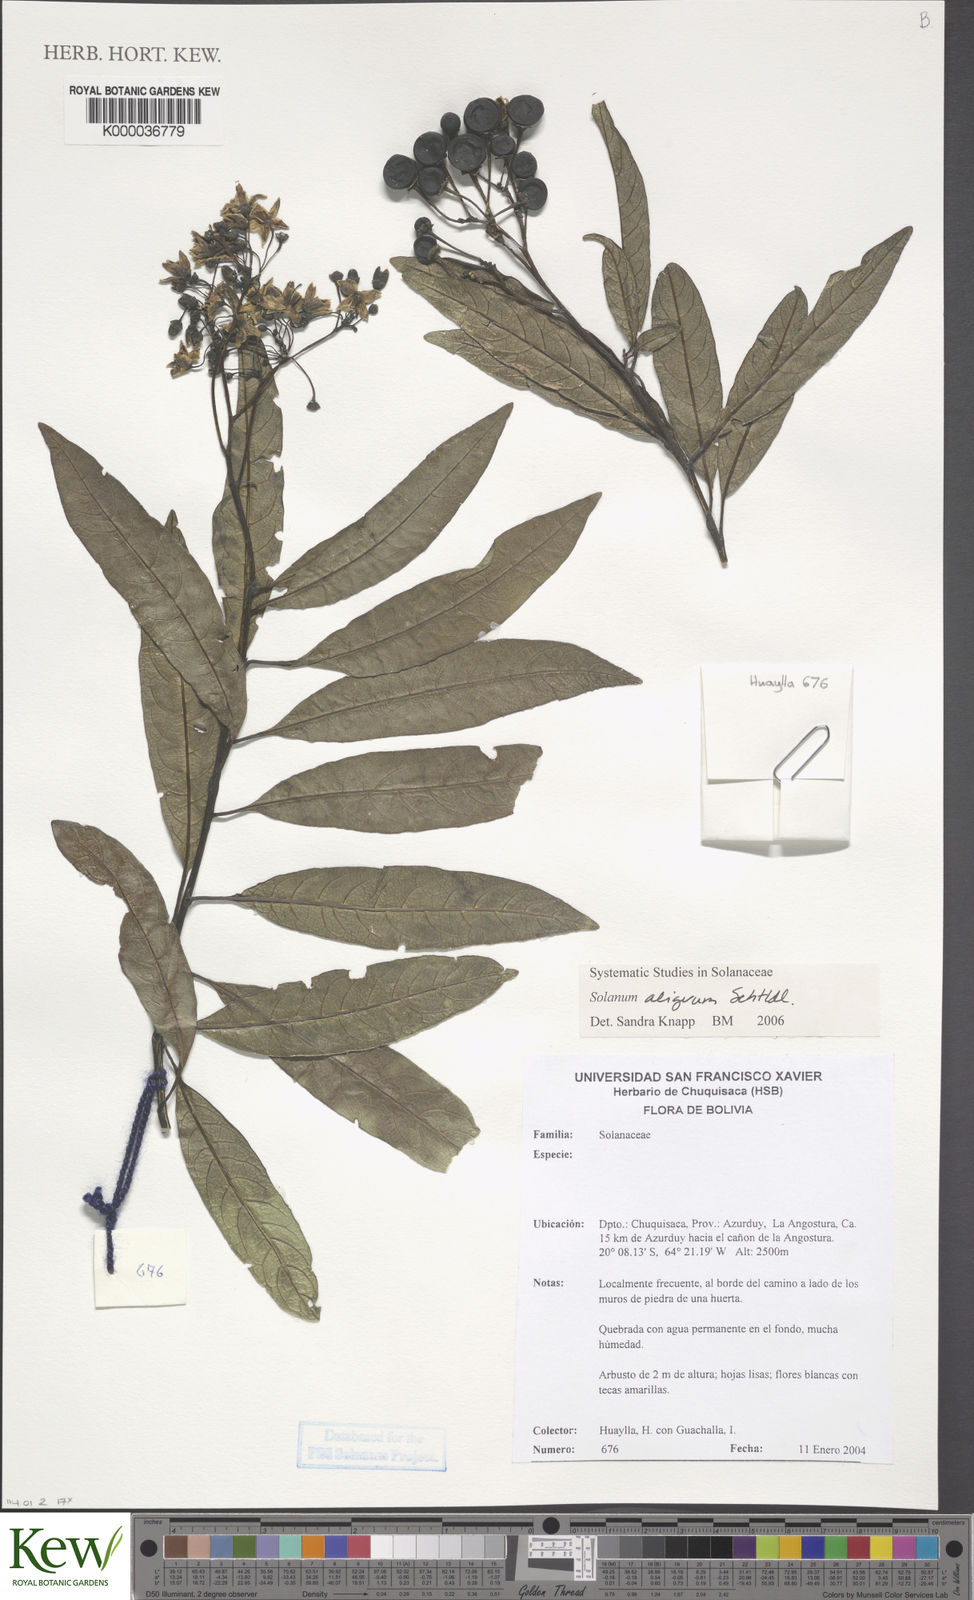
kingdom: Plantae
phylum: Tracheophyta
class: Magnoliopsida
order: Solanales
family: Solanaceae
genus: Solanum
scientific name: Solanum aligerum
